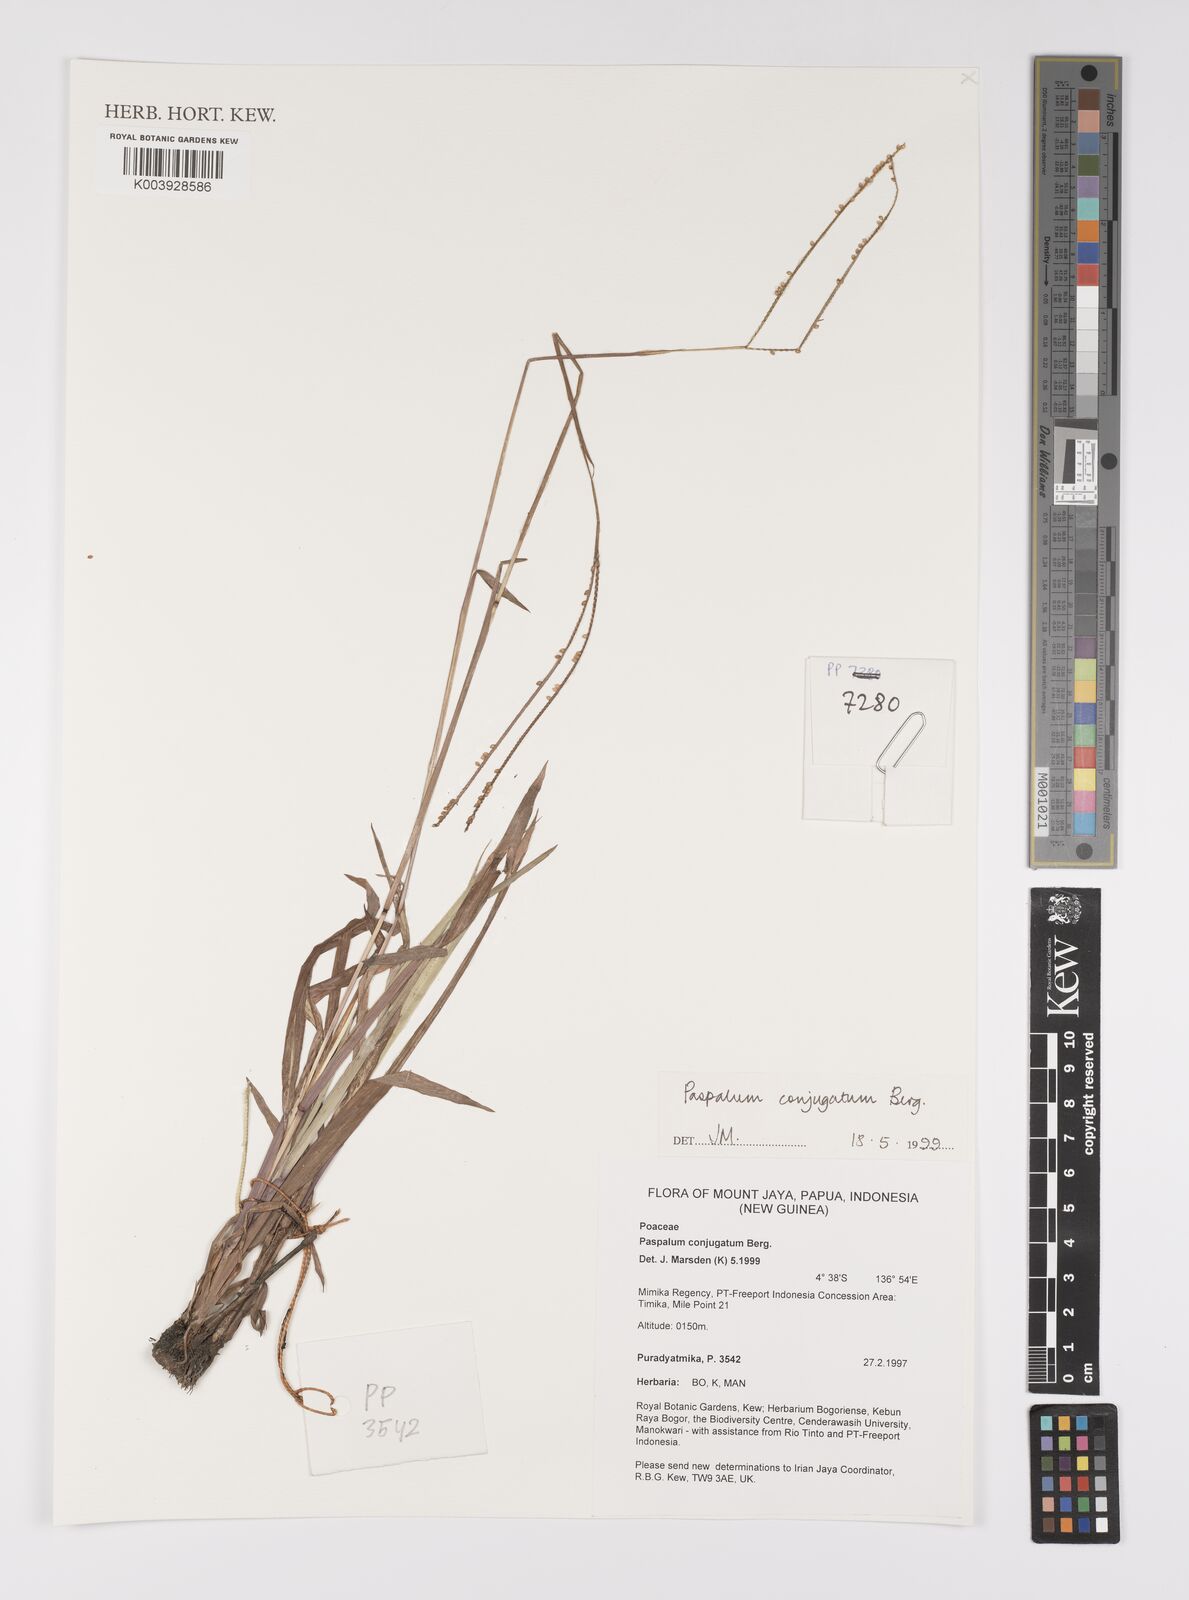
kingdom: Plantae
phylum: Tracheophyta
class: Liliopsida
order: Poales
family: Poaceae
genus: Paspalum
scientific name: Paspalum conjugatum
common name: Hilograss
